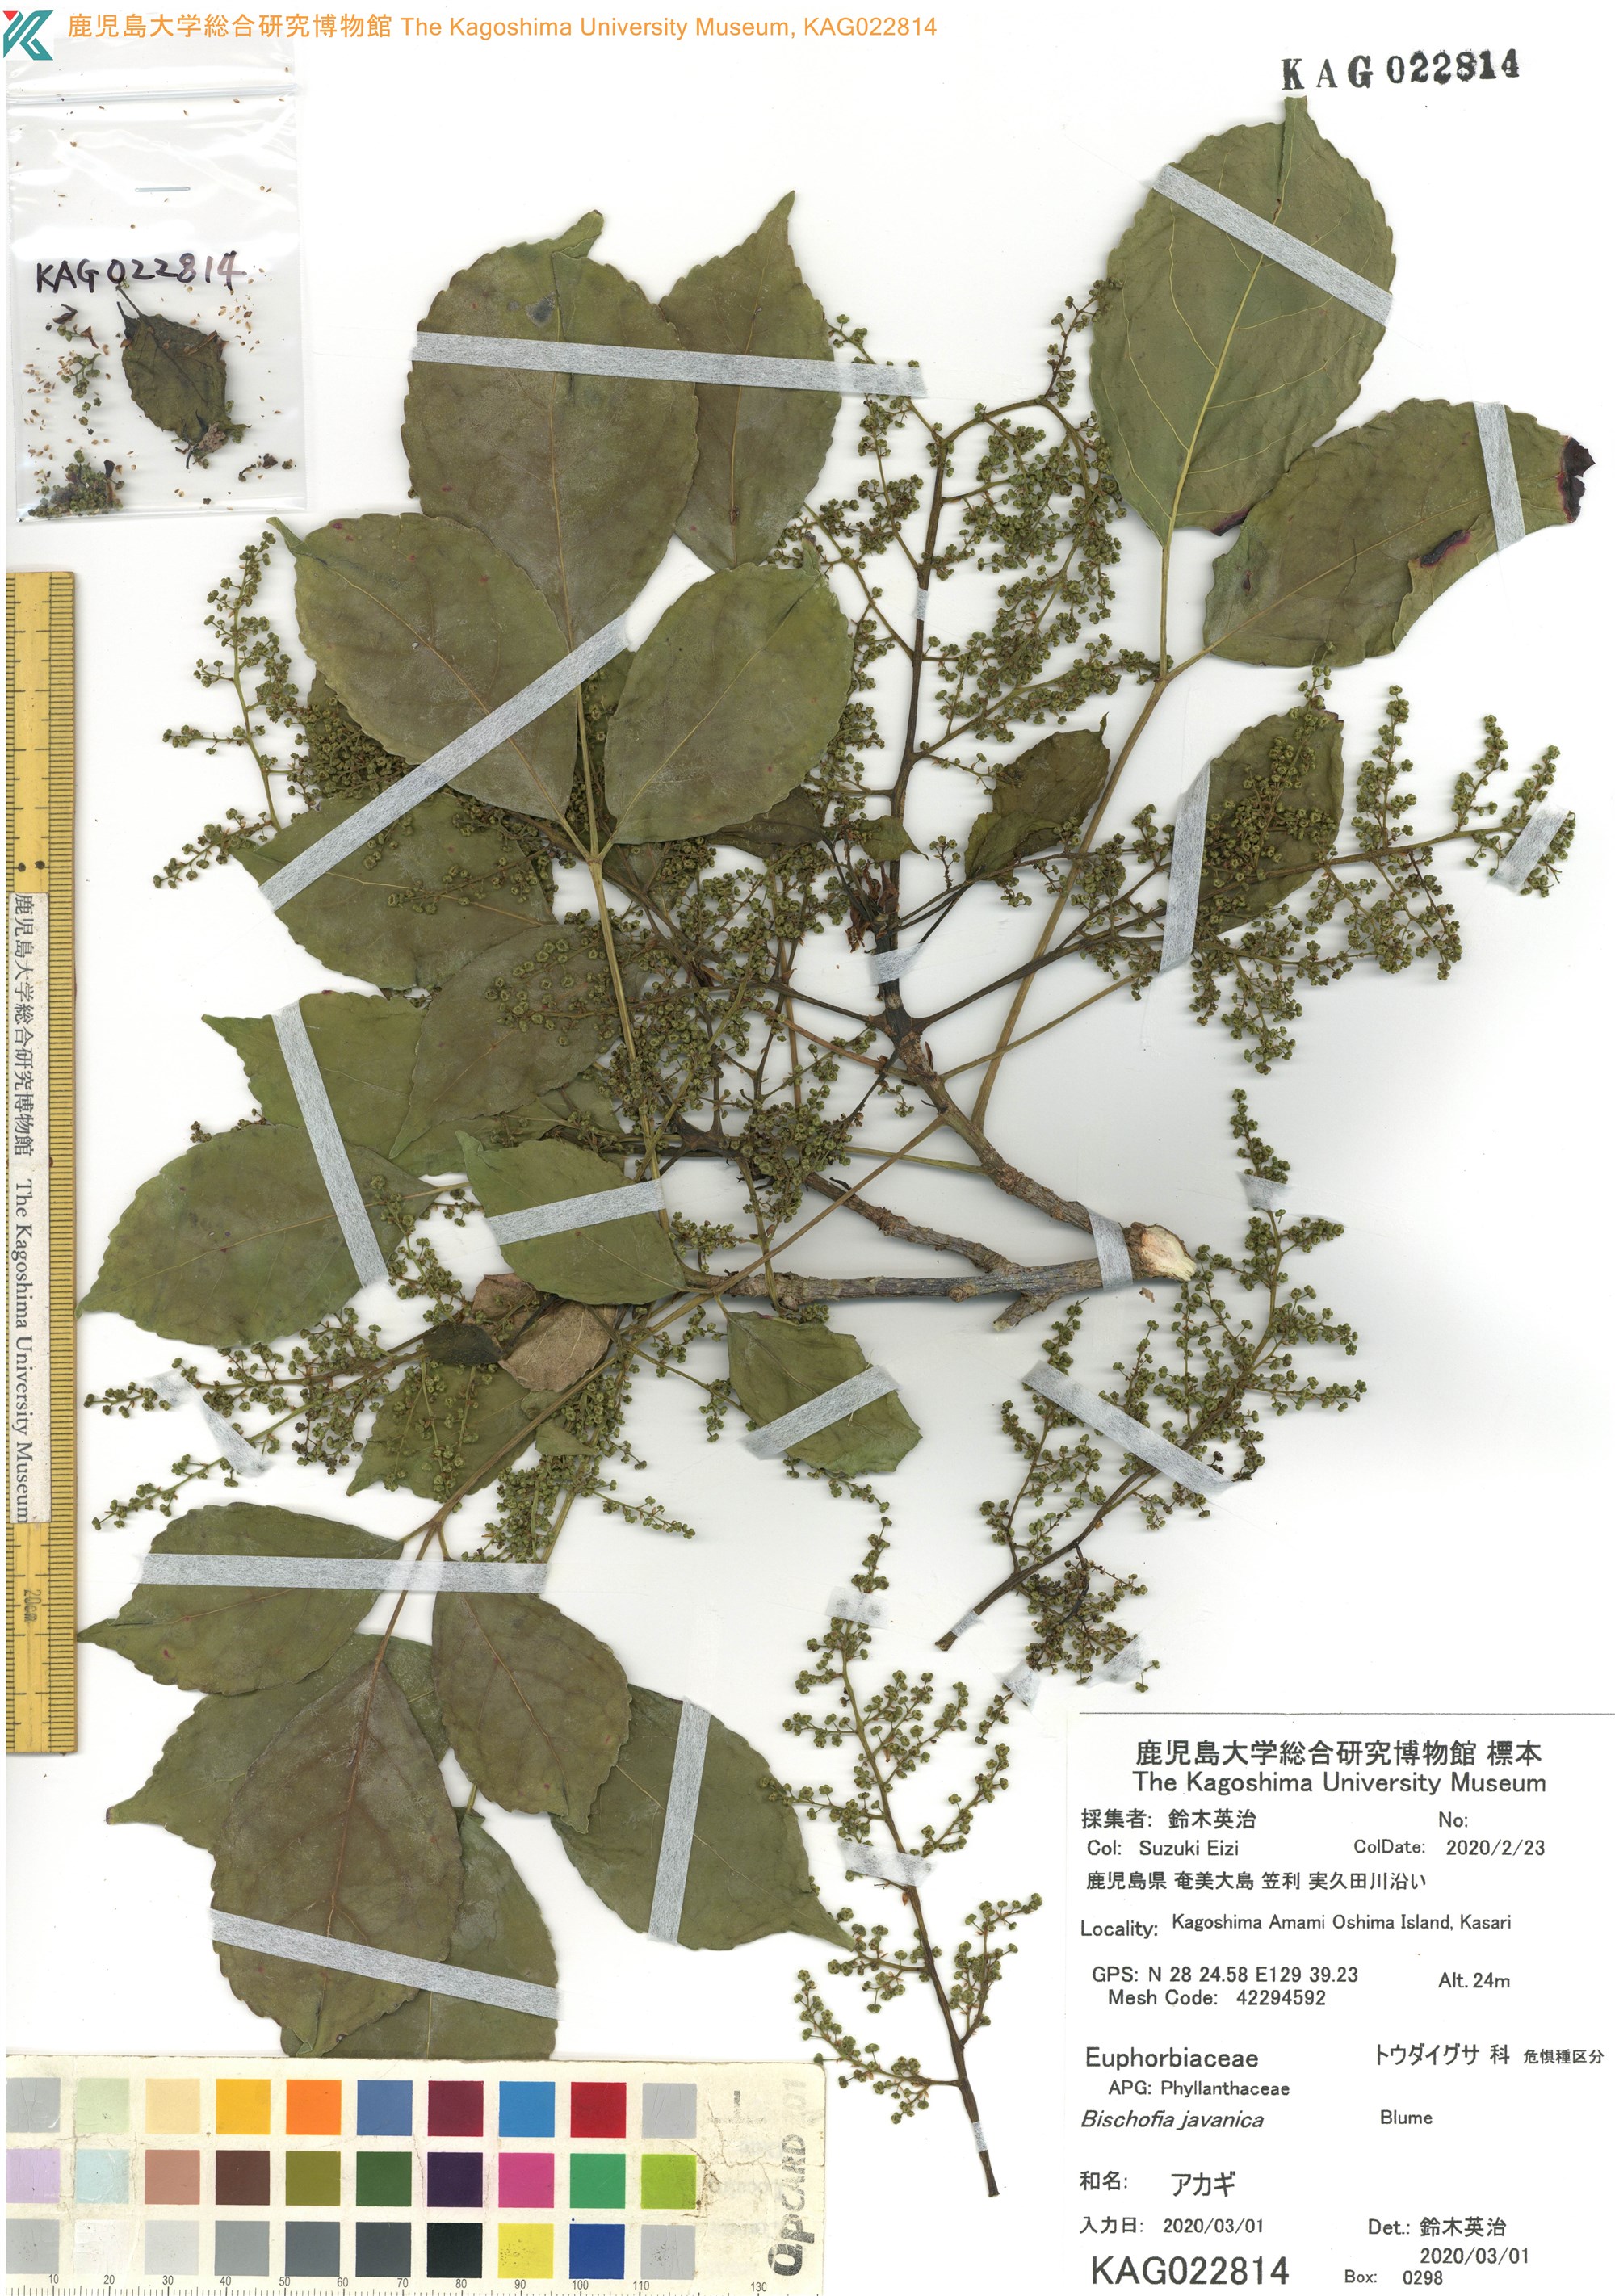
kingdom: Plantae
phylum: Tracheophyta
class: Magnoliopsida
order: Malpighiales
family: Phyllanthaceae
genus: Bischofia
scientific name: Bischofia javanica
